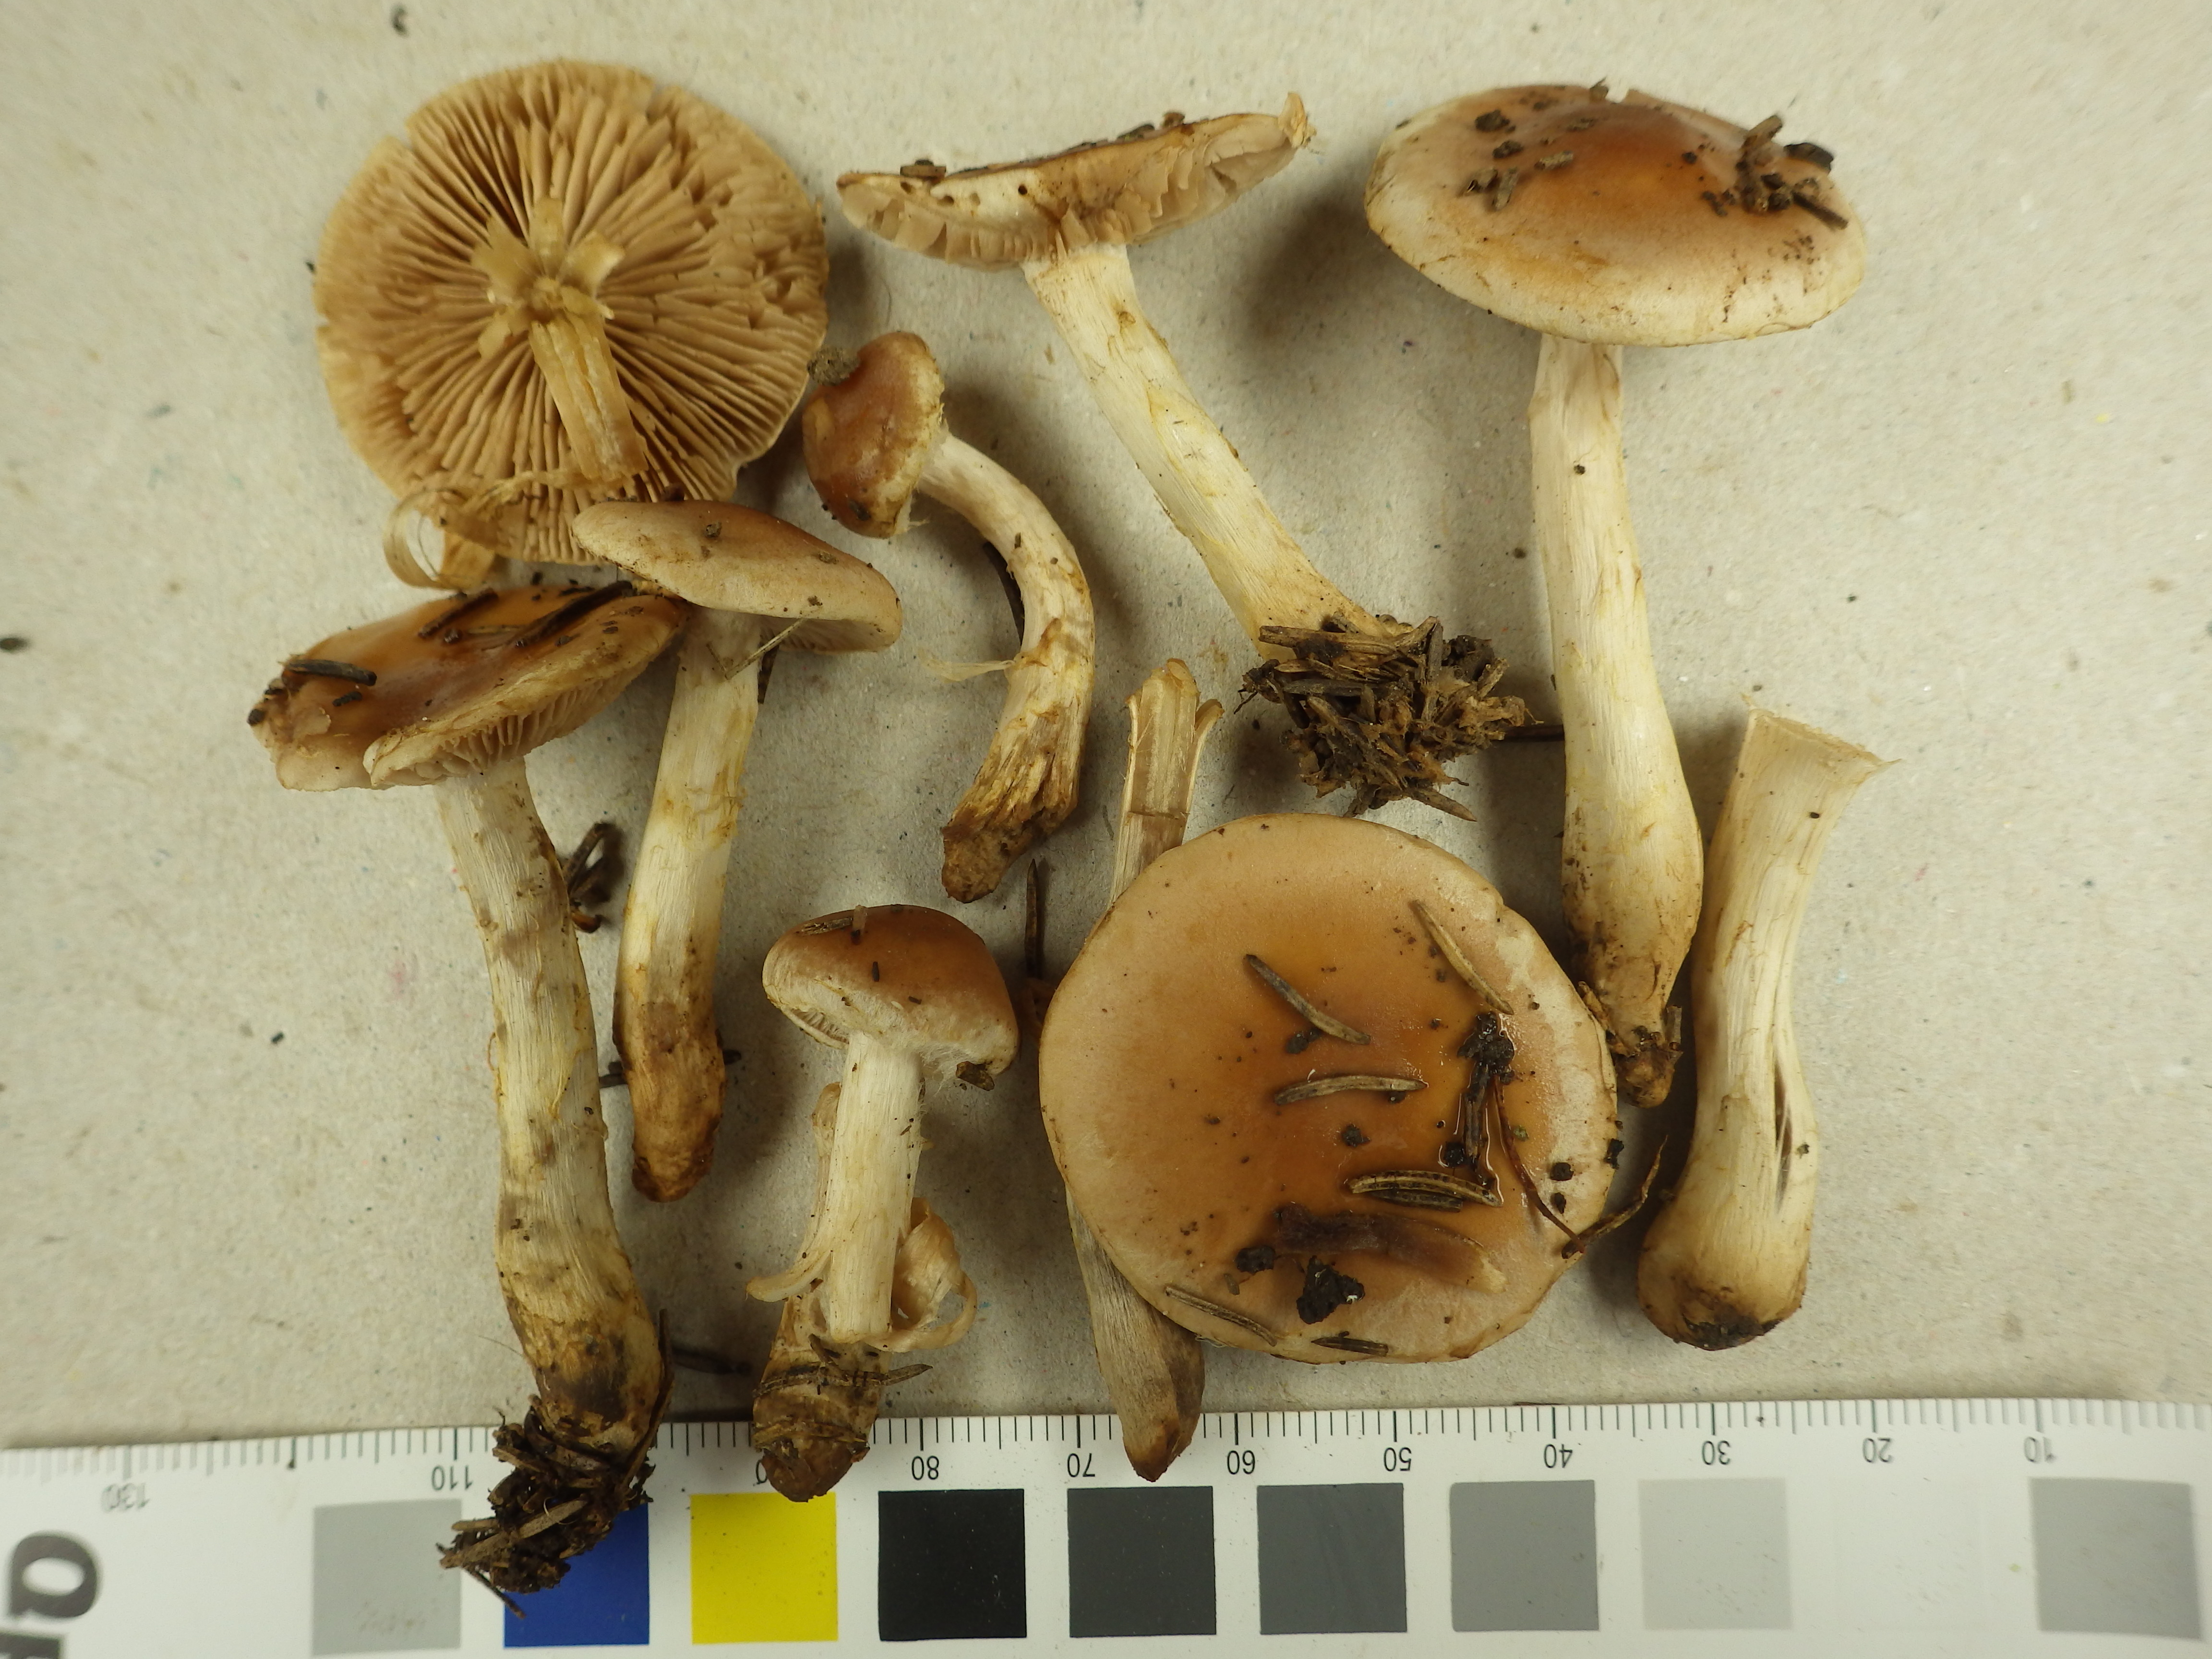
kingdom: Fungi
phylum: Basidiomycota
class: Agaricomycetes
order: Agaricales
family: Hymenogastraceae
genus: Hebeloma
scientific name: Hebeloma monticola
